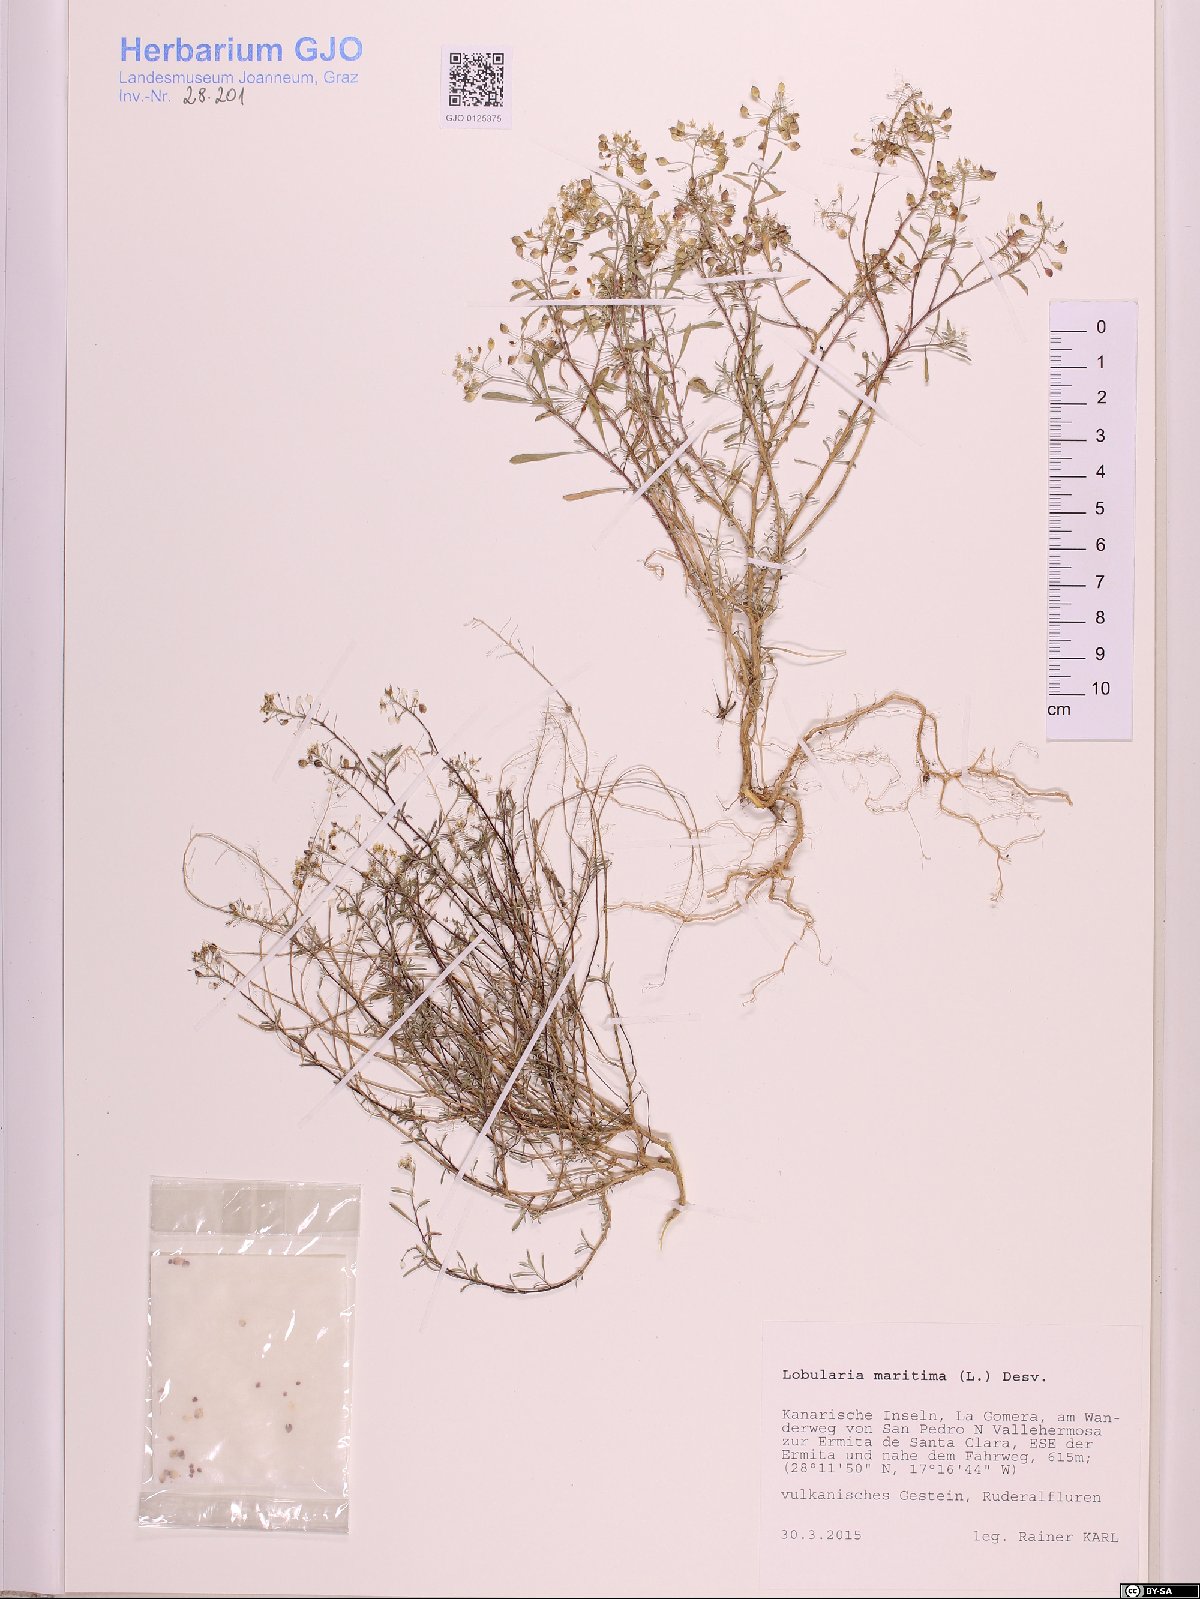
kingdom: Plantae
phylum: Tracheophyta
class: Magnoliopsida
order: Brassicales
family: Brassicaceae
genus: Lobularia
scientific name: Lobularia maritima
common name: Sweet alison
